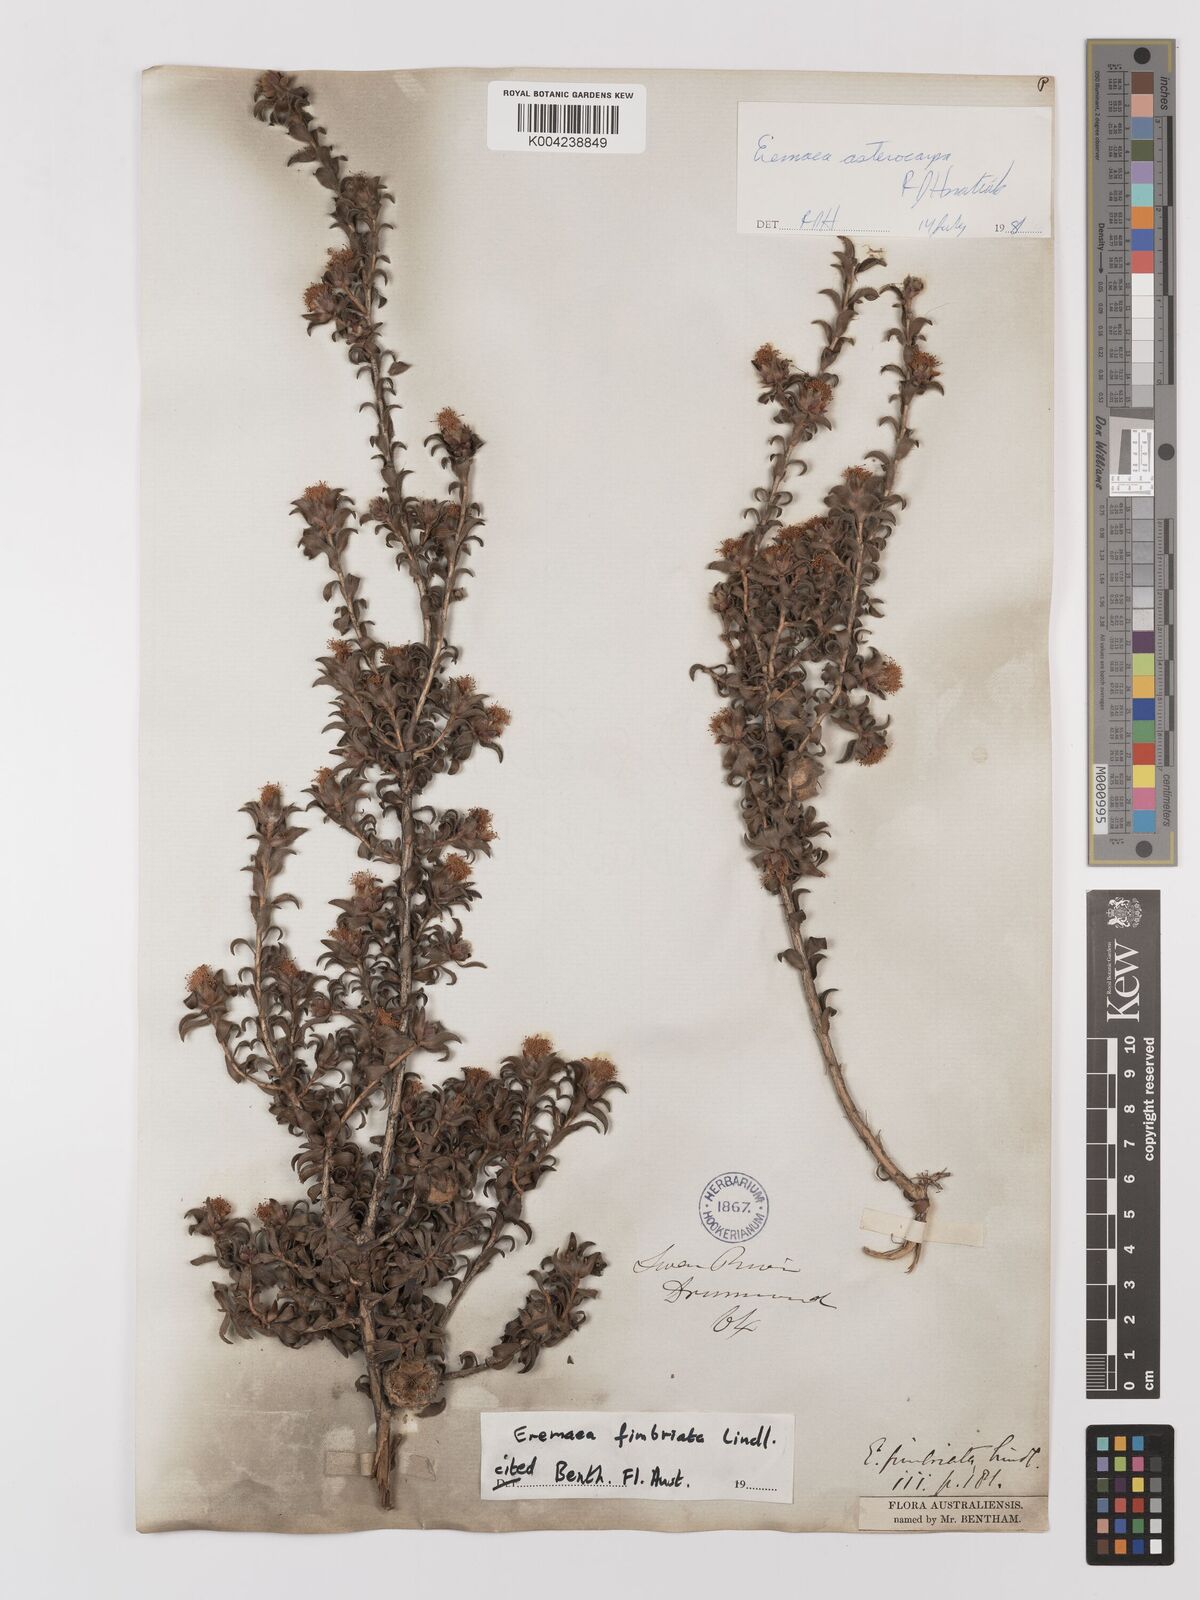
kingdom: Plantae
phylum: Tracheophyta
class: Magnoliopsida
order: Myrtales
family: Myrtaceae
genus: Melaleuca
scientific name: Melaleuca asterocarpa
